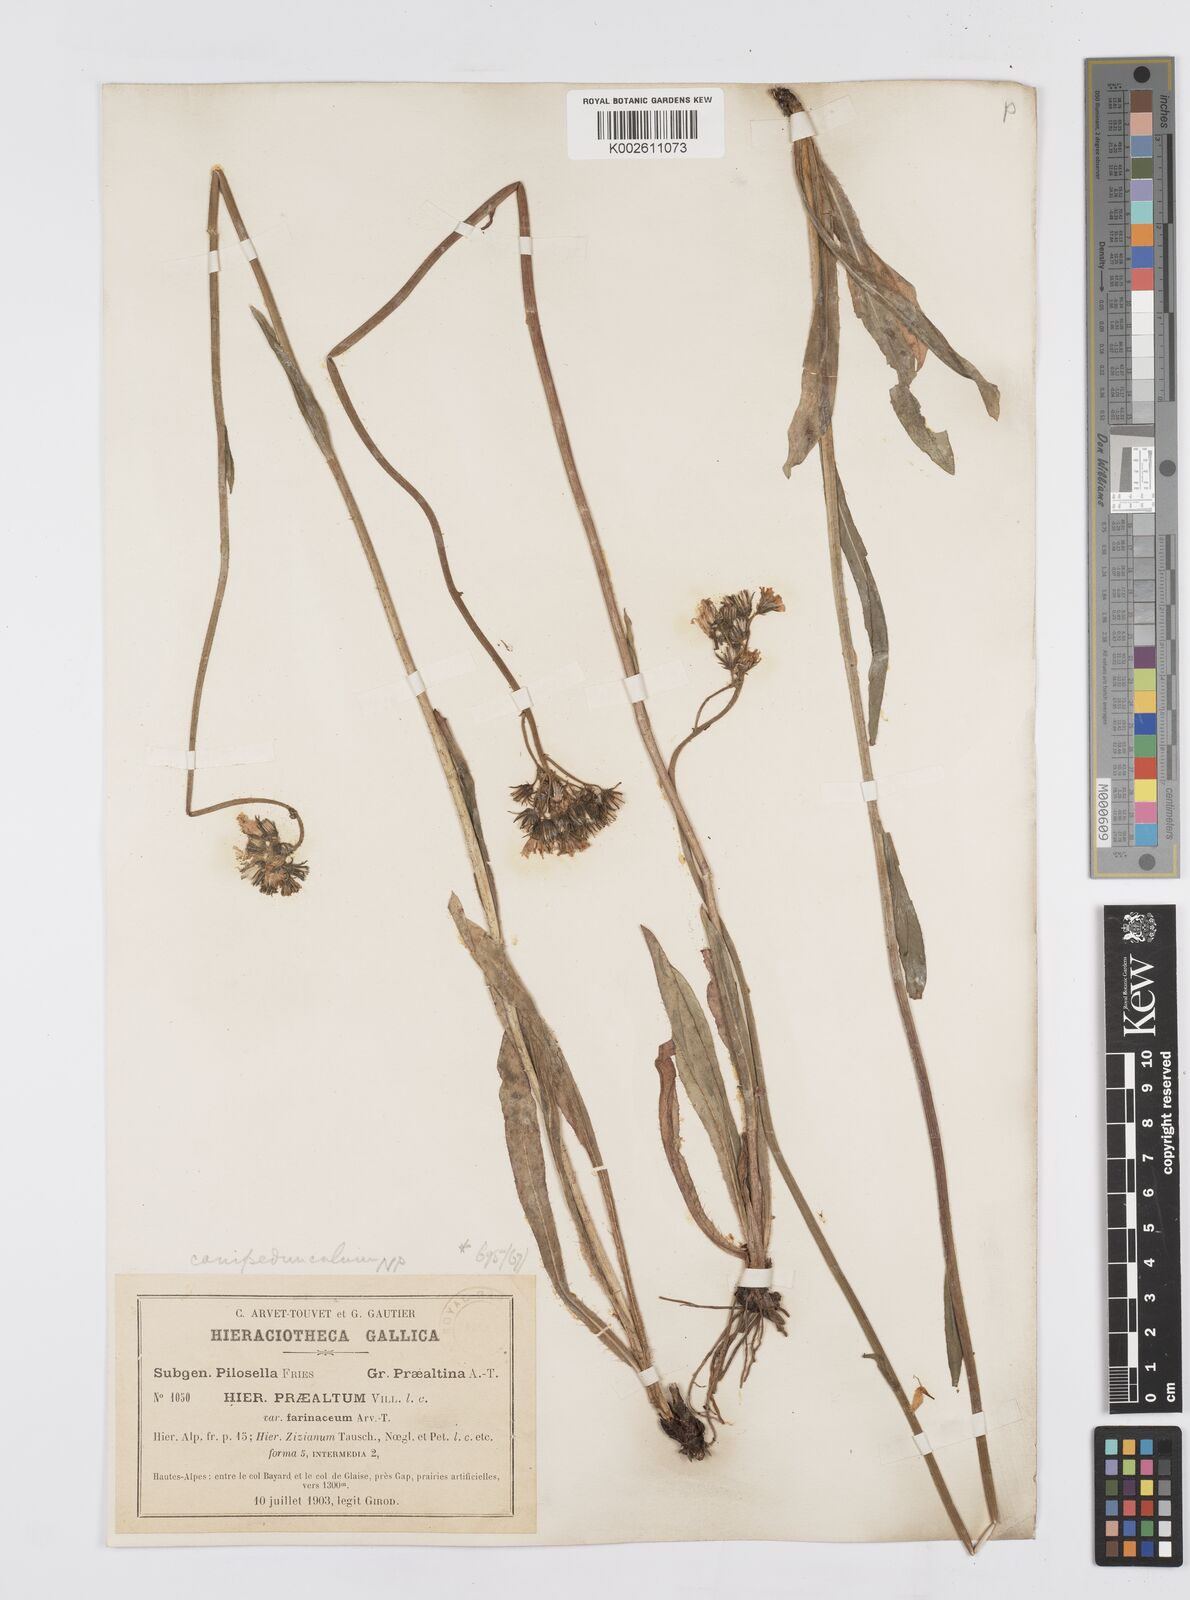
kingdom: Plantae
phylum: Tracheophyta
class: Magnoliopsida
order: Asterales
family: Asteraceae
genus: Pilosella
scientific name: Pilosella piloselloides
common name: Glaucous king-devil
